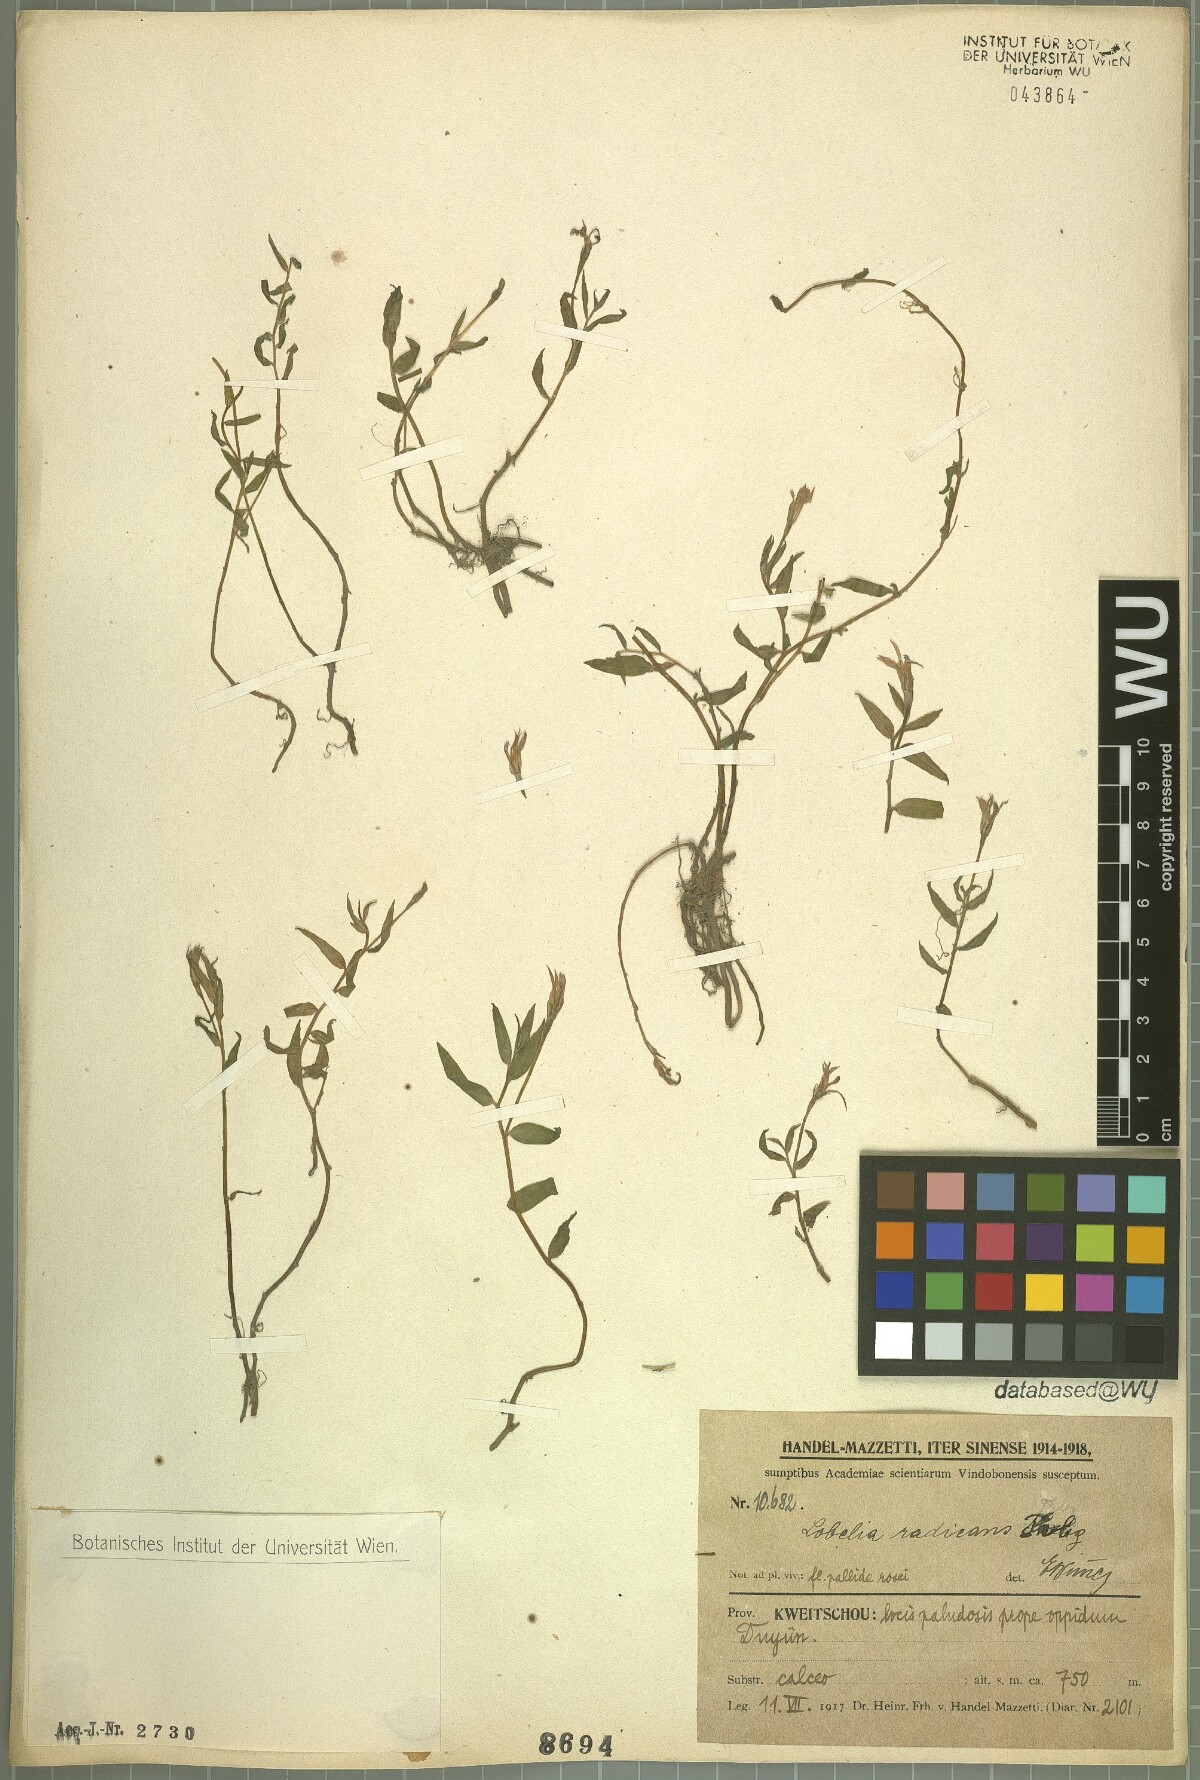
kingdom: Plantae
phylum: Tracheophyta
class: Magnoliopsida
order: Asterales
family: Campanulaceae
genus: Lobelia
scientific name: Lobelia chinensis
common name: Chinese lobelia
